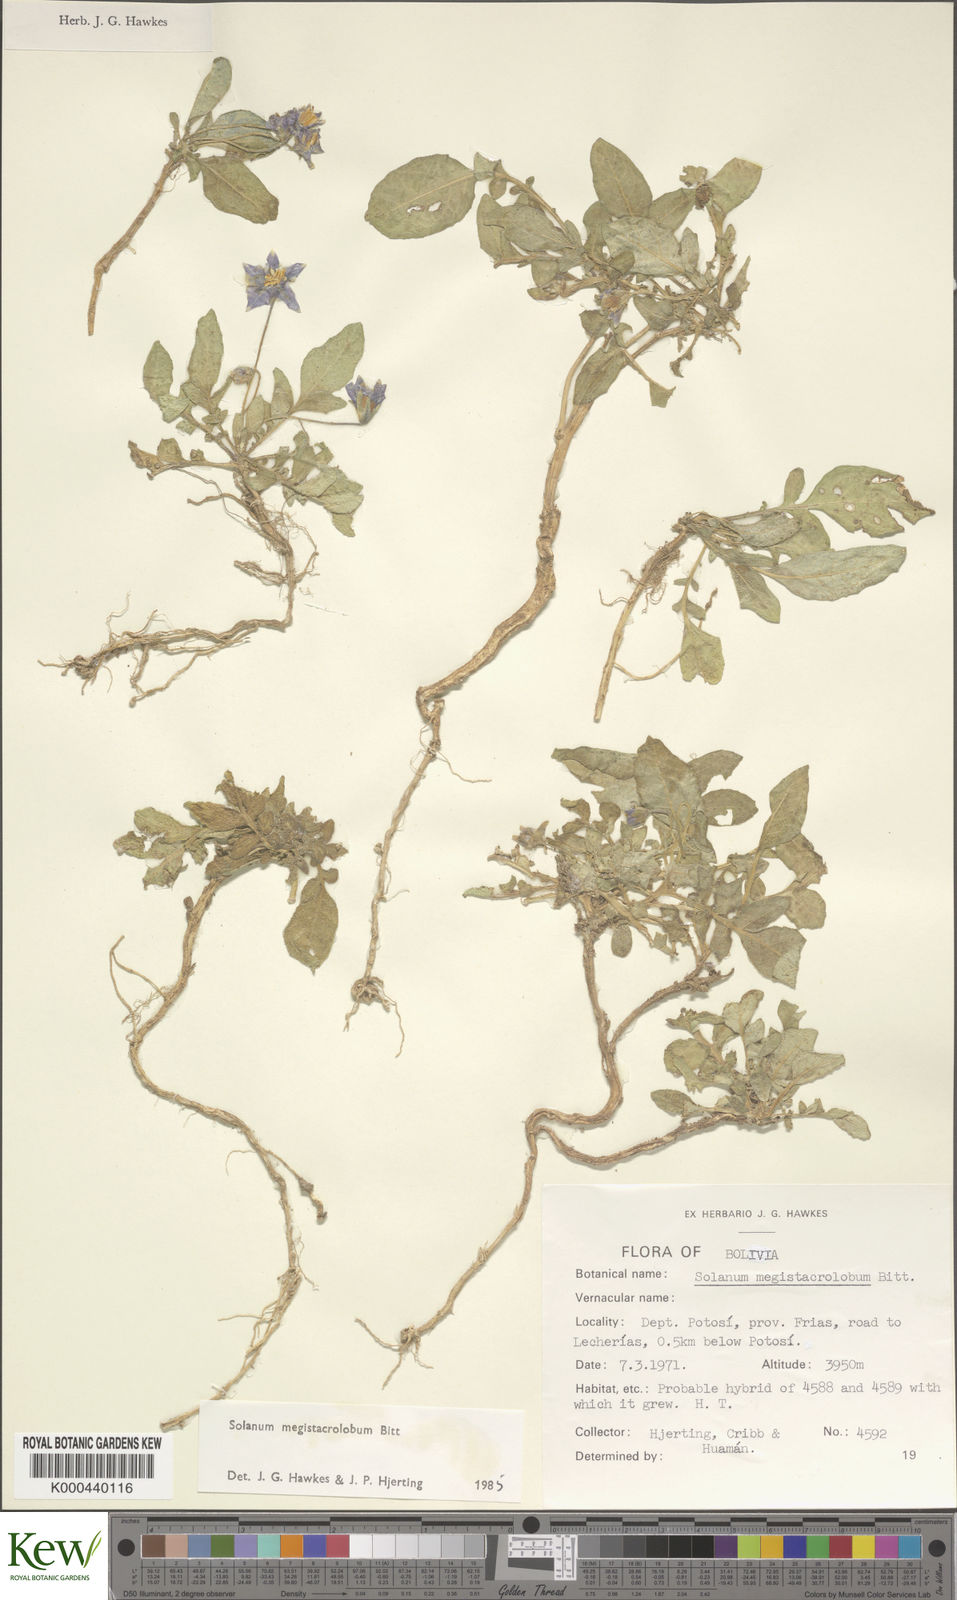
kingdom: Plantae
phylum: Tracheophyta
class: Magnoliopsida
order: Solanales
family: Solanaceae
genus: Solanum
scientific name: Solanum boliviense
